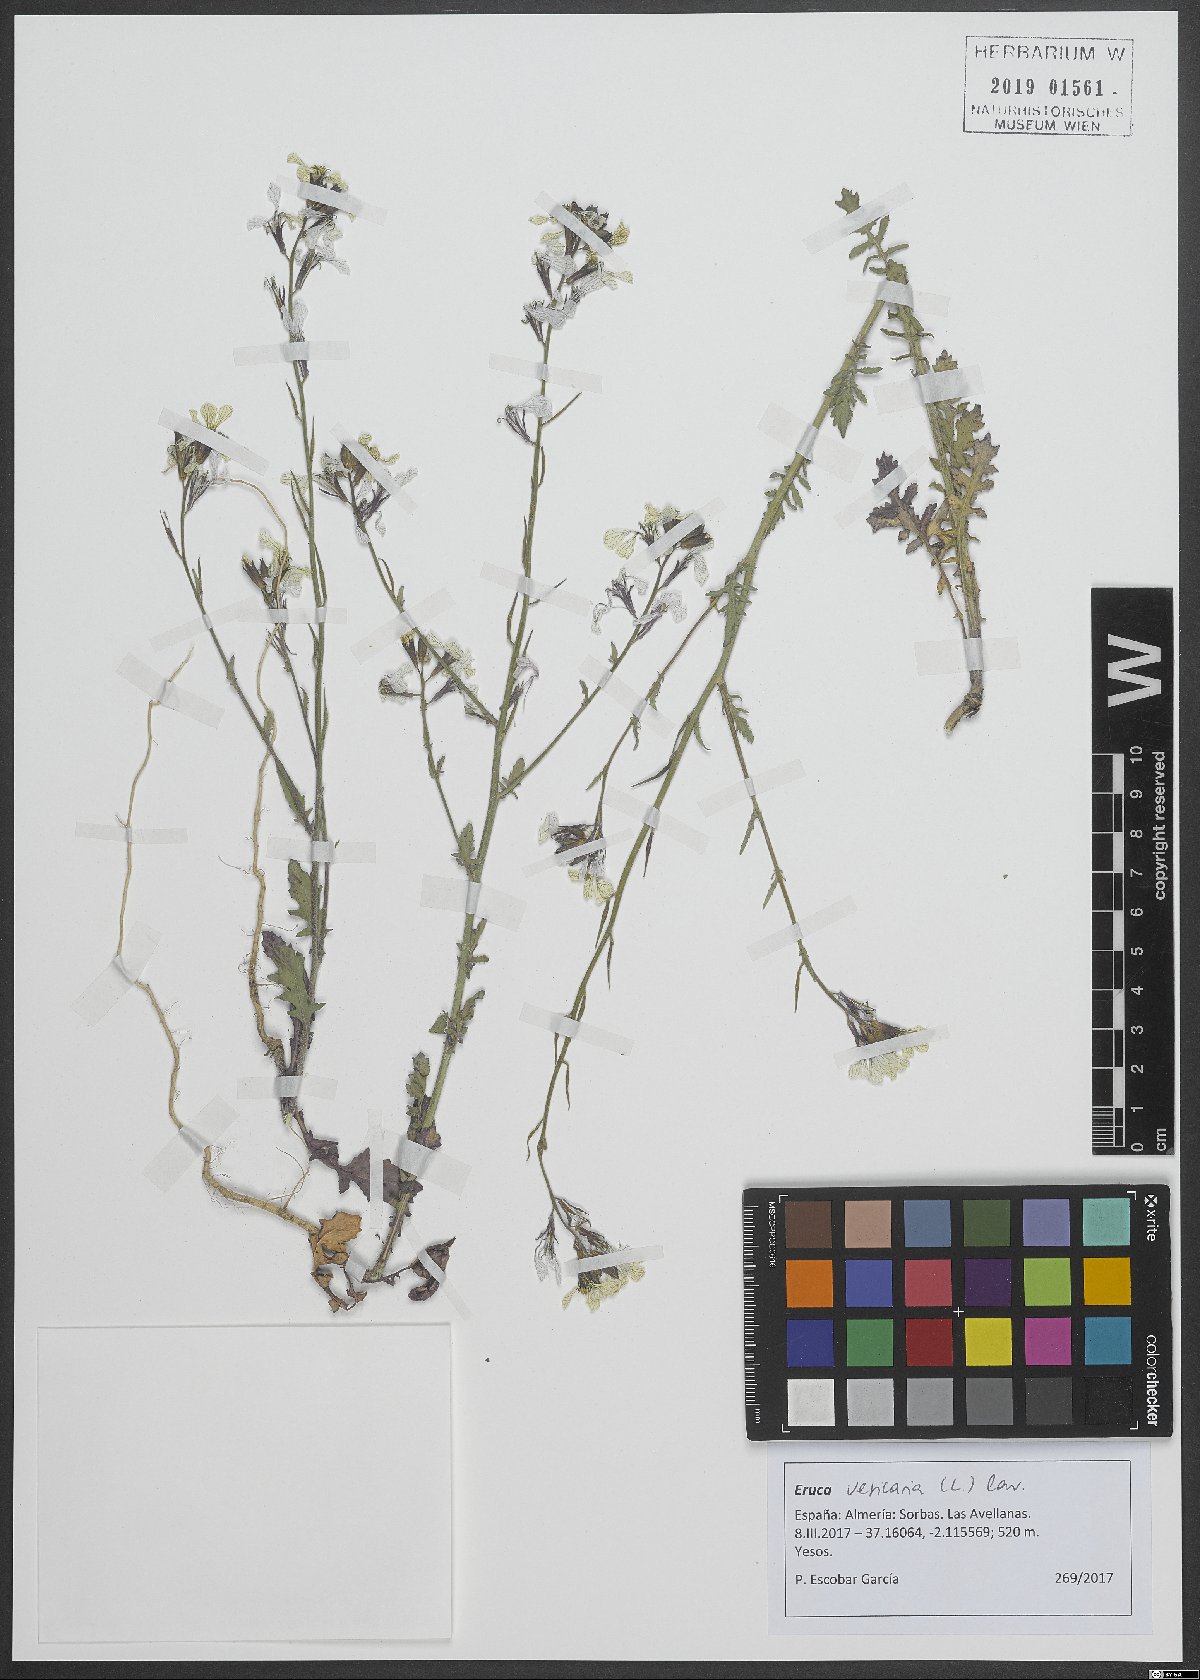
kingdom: Plantae
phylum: Tracheophyta
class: Magnoliopsida
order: Brassicales
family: Brassicaceae
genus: Eruca
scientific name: Eruca vesicaria
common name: Garden rocket
